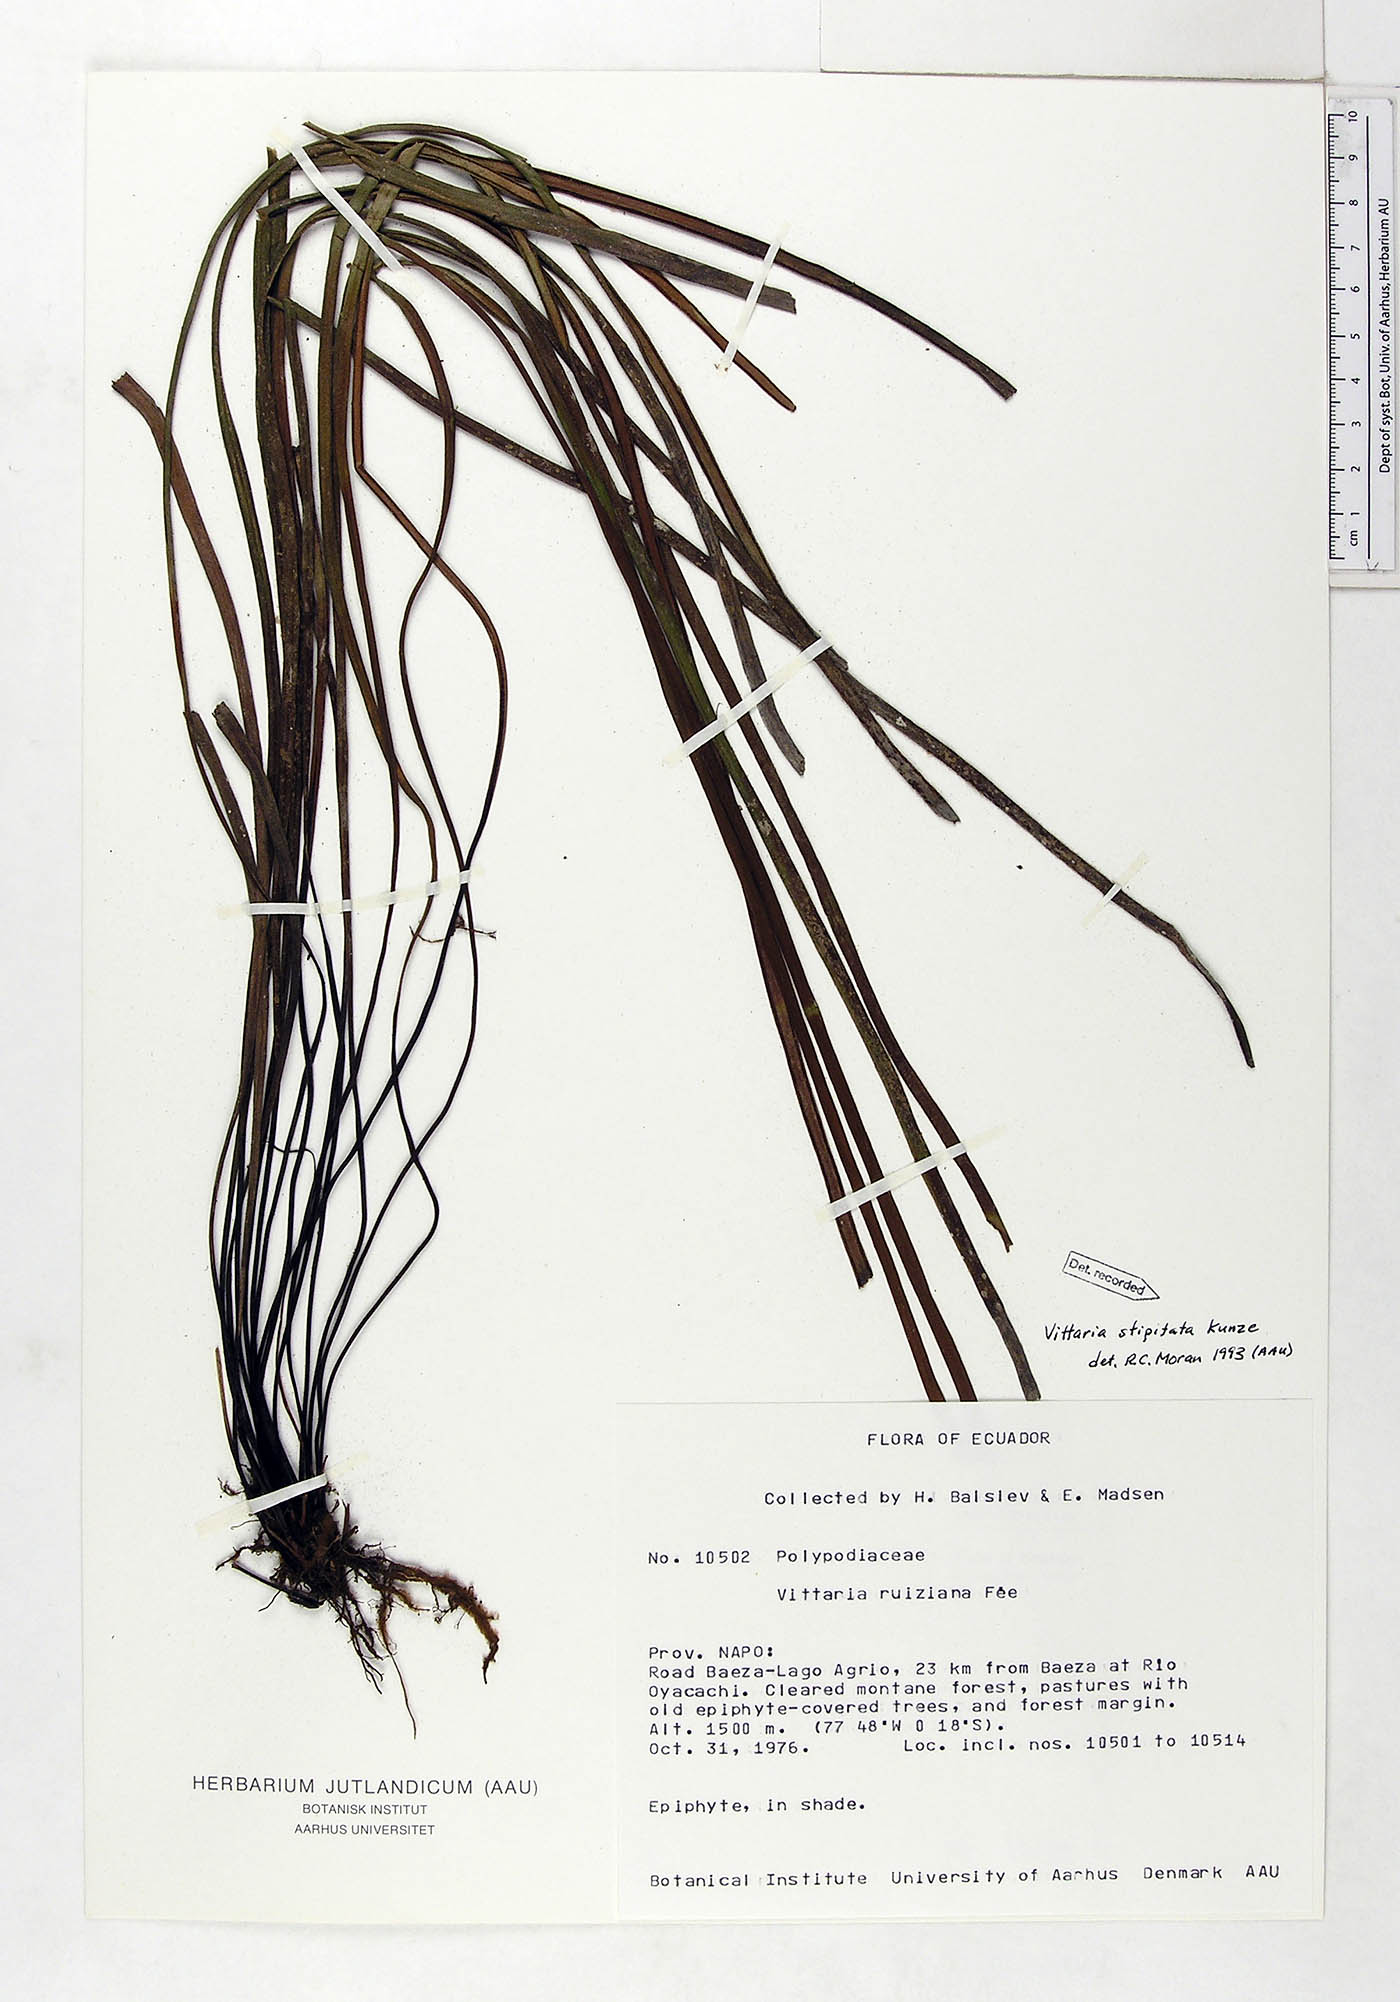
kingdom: Plantae
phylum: Tracheophyta
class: Polypodiopsida
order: Polypodiales
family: Pteridaceae
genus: Radiovittaria
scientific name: Radiovittaria stipitata
